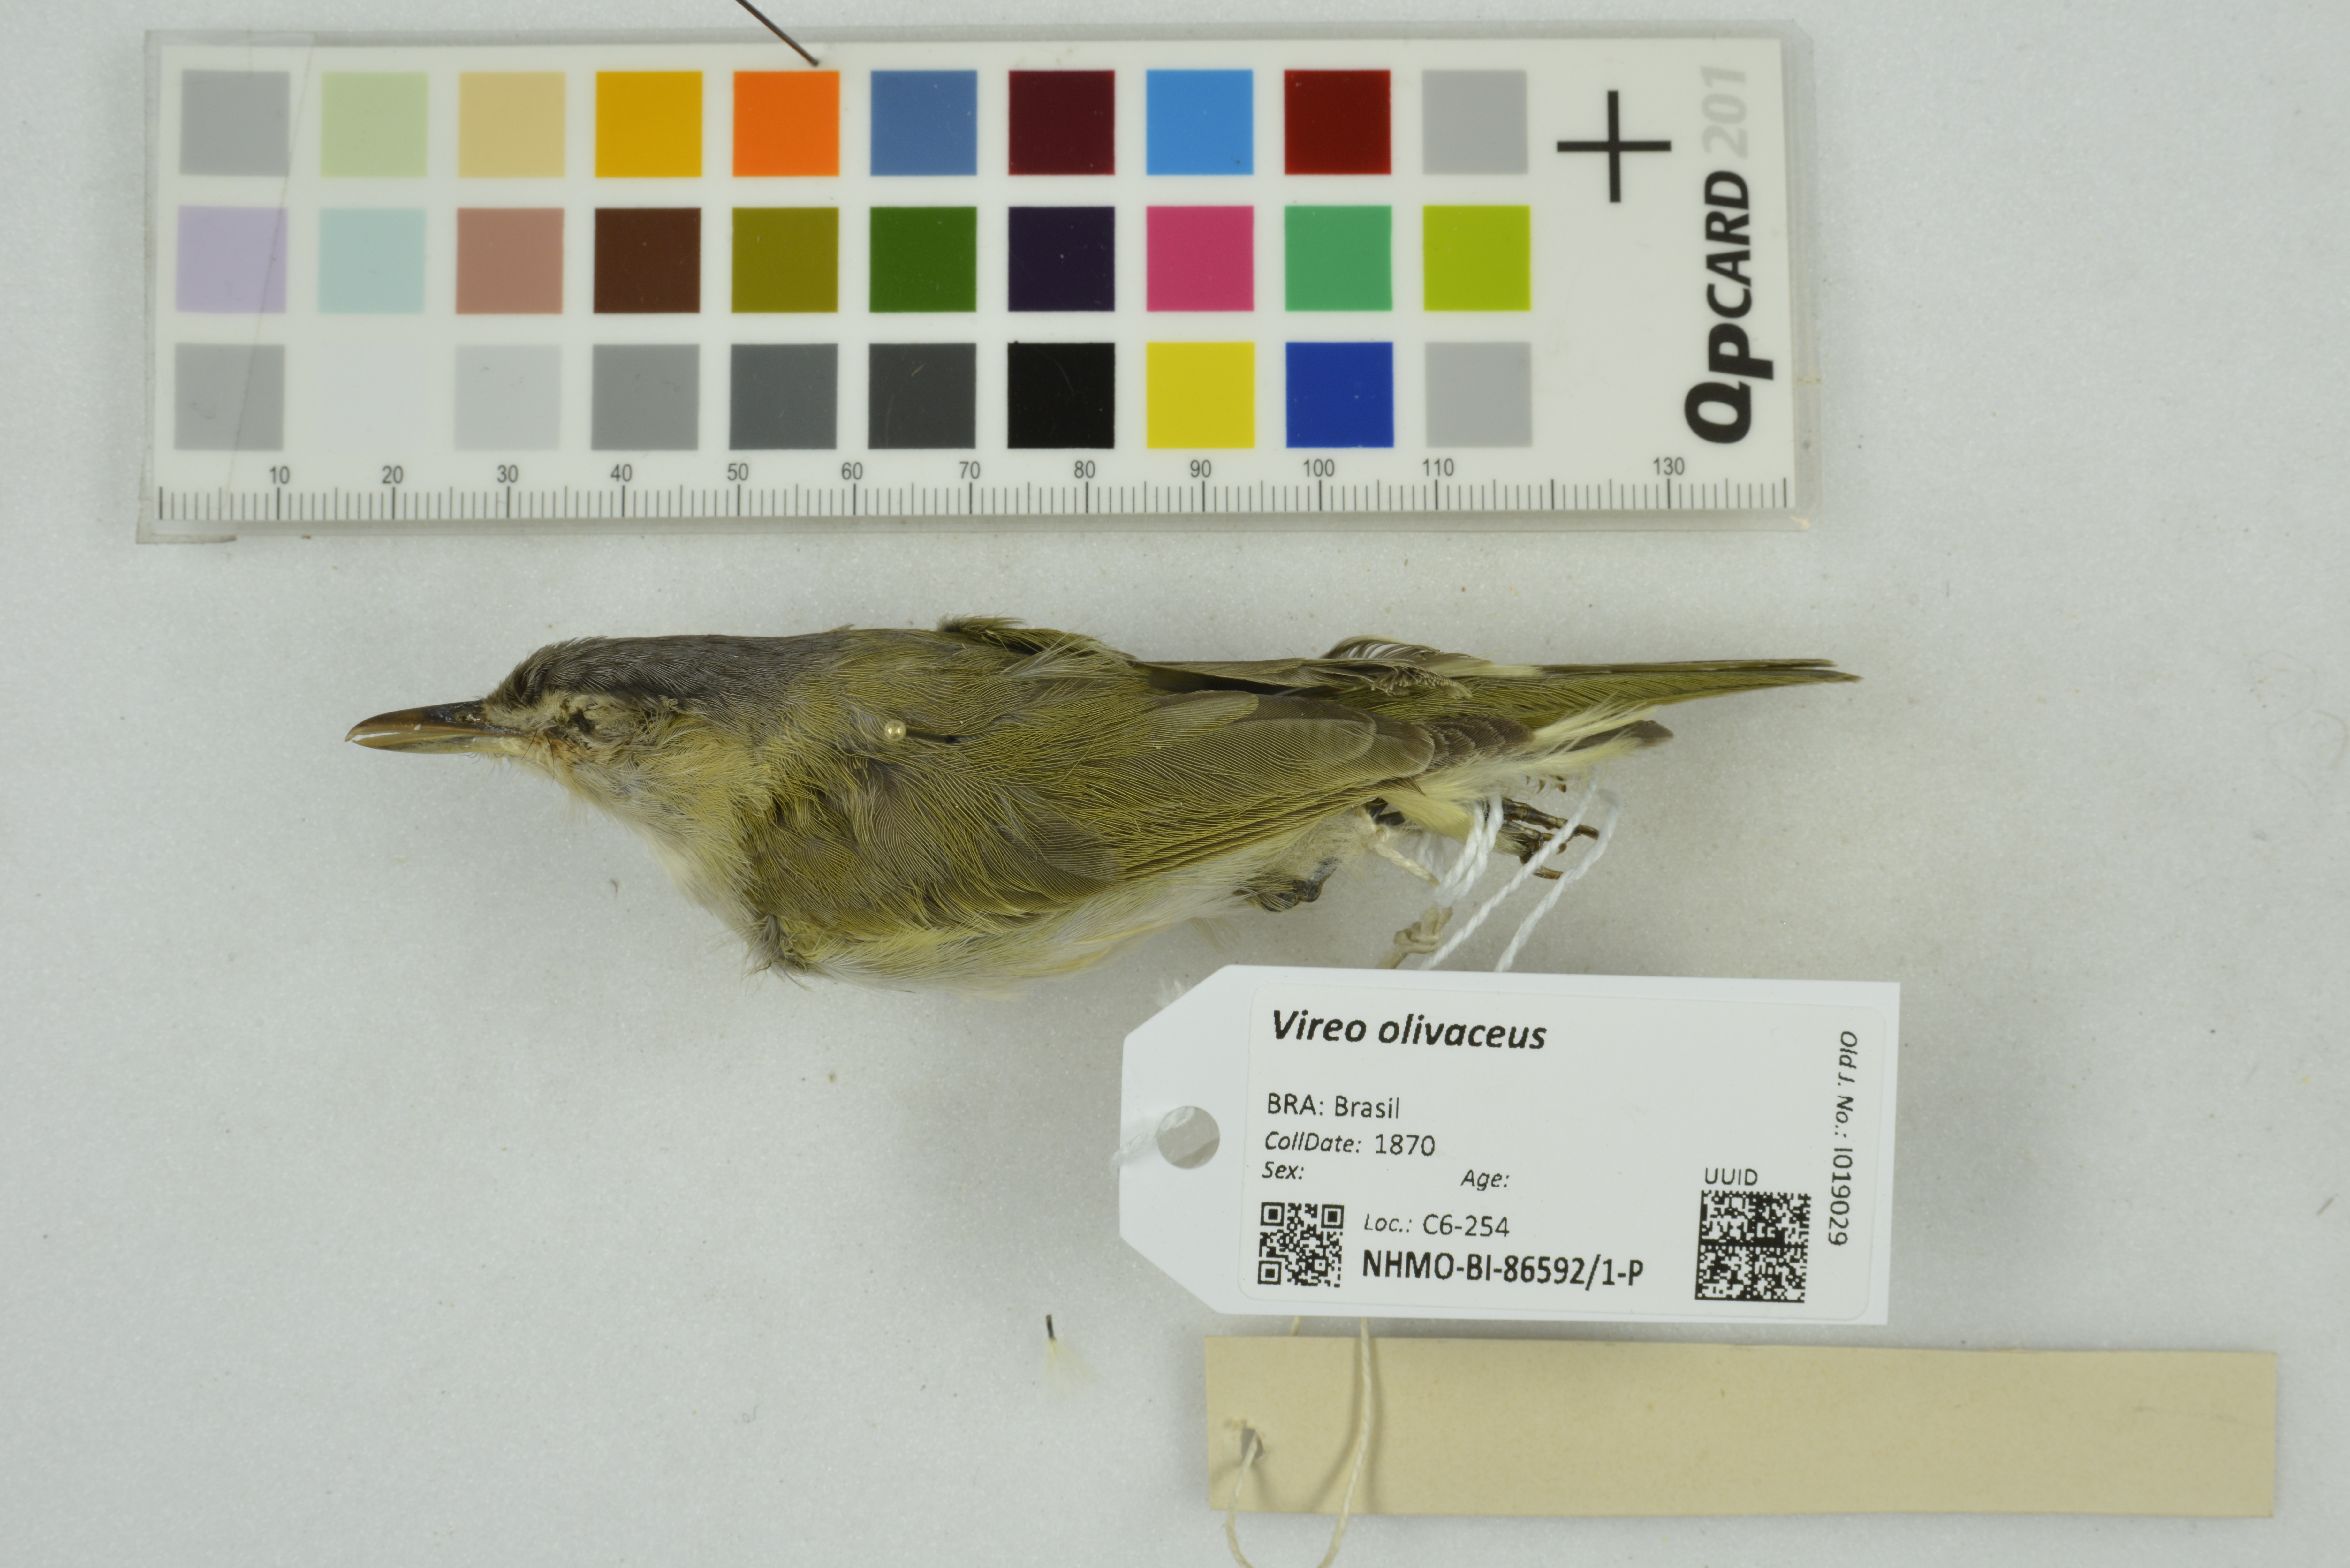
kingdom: Animalia
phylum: Chordata
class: Aves
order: Passeriformes
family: Vireonidae
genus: Vireo
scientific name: Vireo olivaceus
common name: Red-eyed vireo
